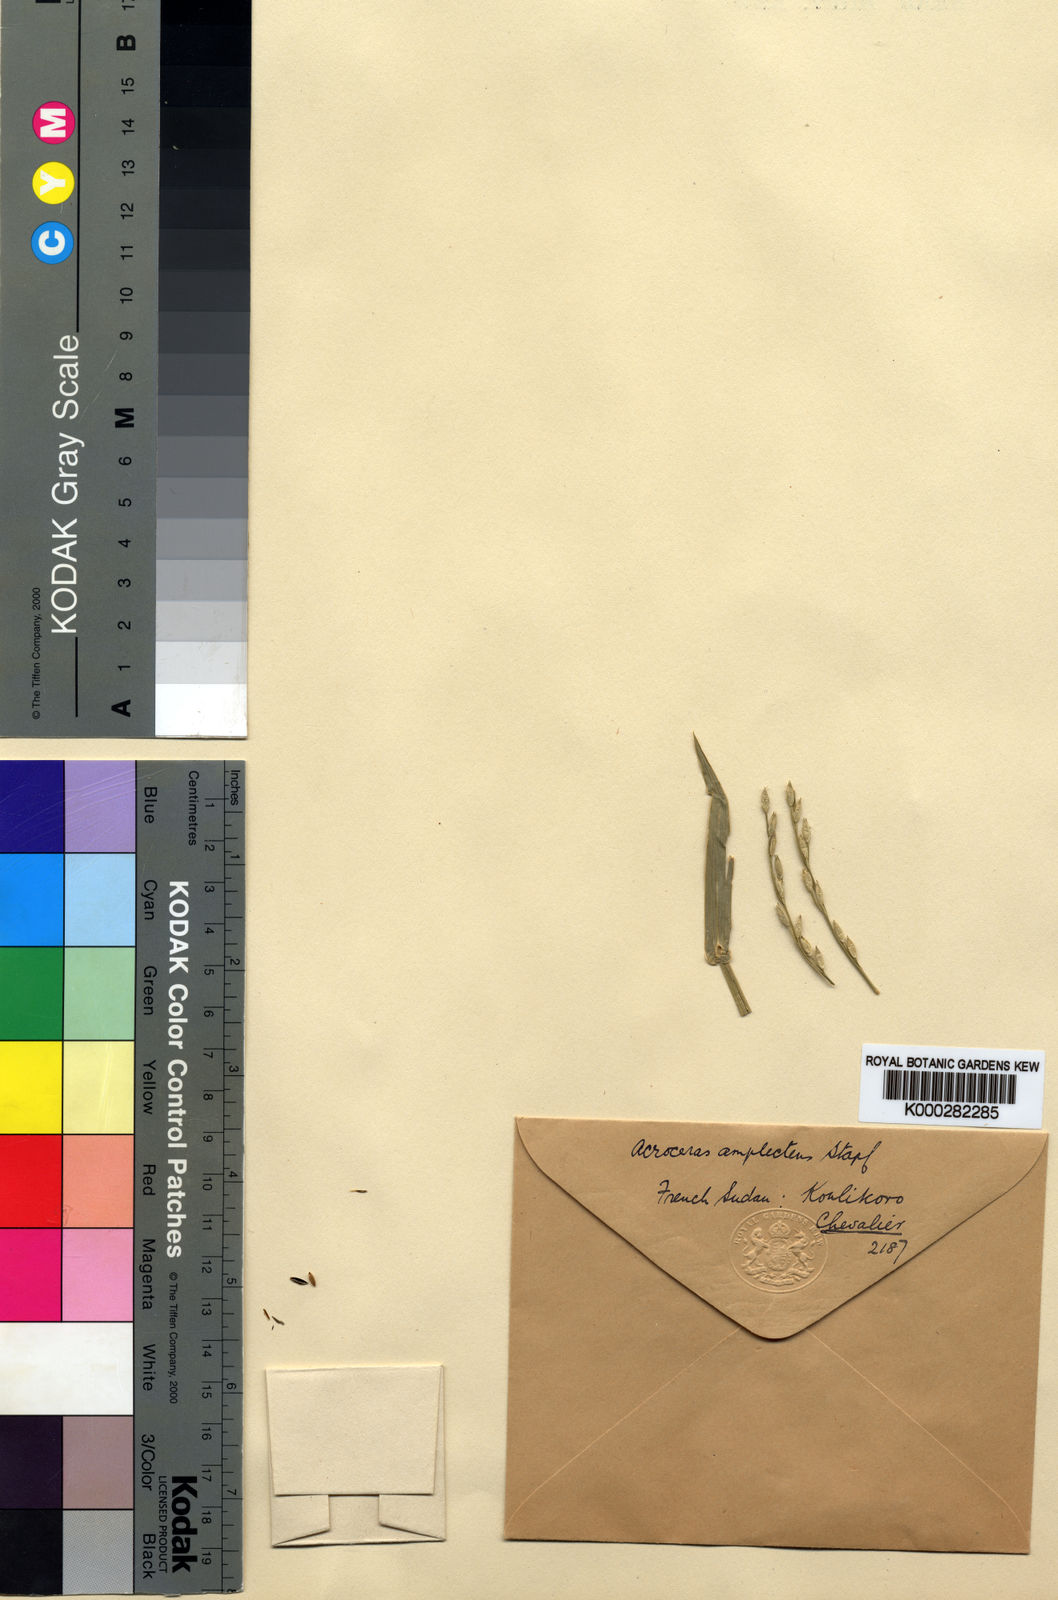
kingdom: Plantae
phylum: Tracheophyta
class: Liliopsida
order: Poales
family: Poaceae
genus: Acroceras
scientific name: Acroceras amplectens
